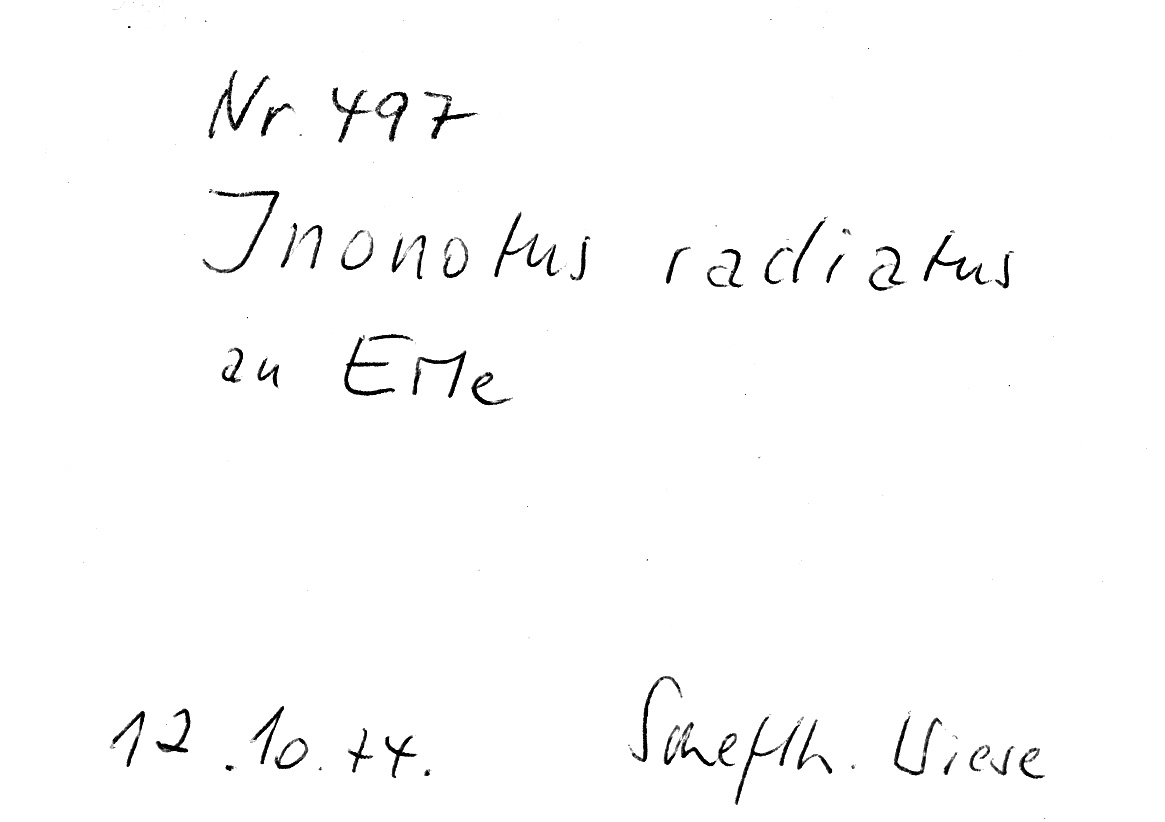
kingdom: Fungi
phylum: Basidiomycota
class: Agaricomycetes
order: Hymenochaetales
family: Hymenochaetaceae
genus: Xanthoporia
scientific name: Xanthoporia radiata
